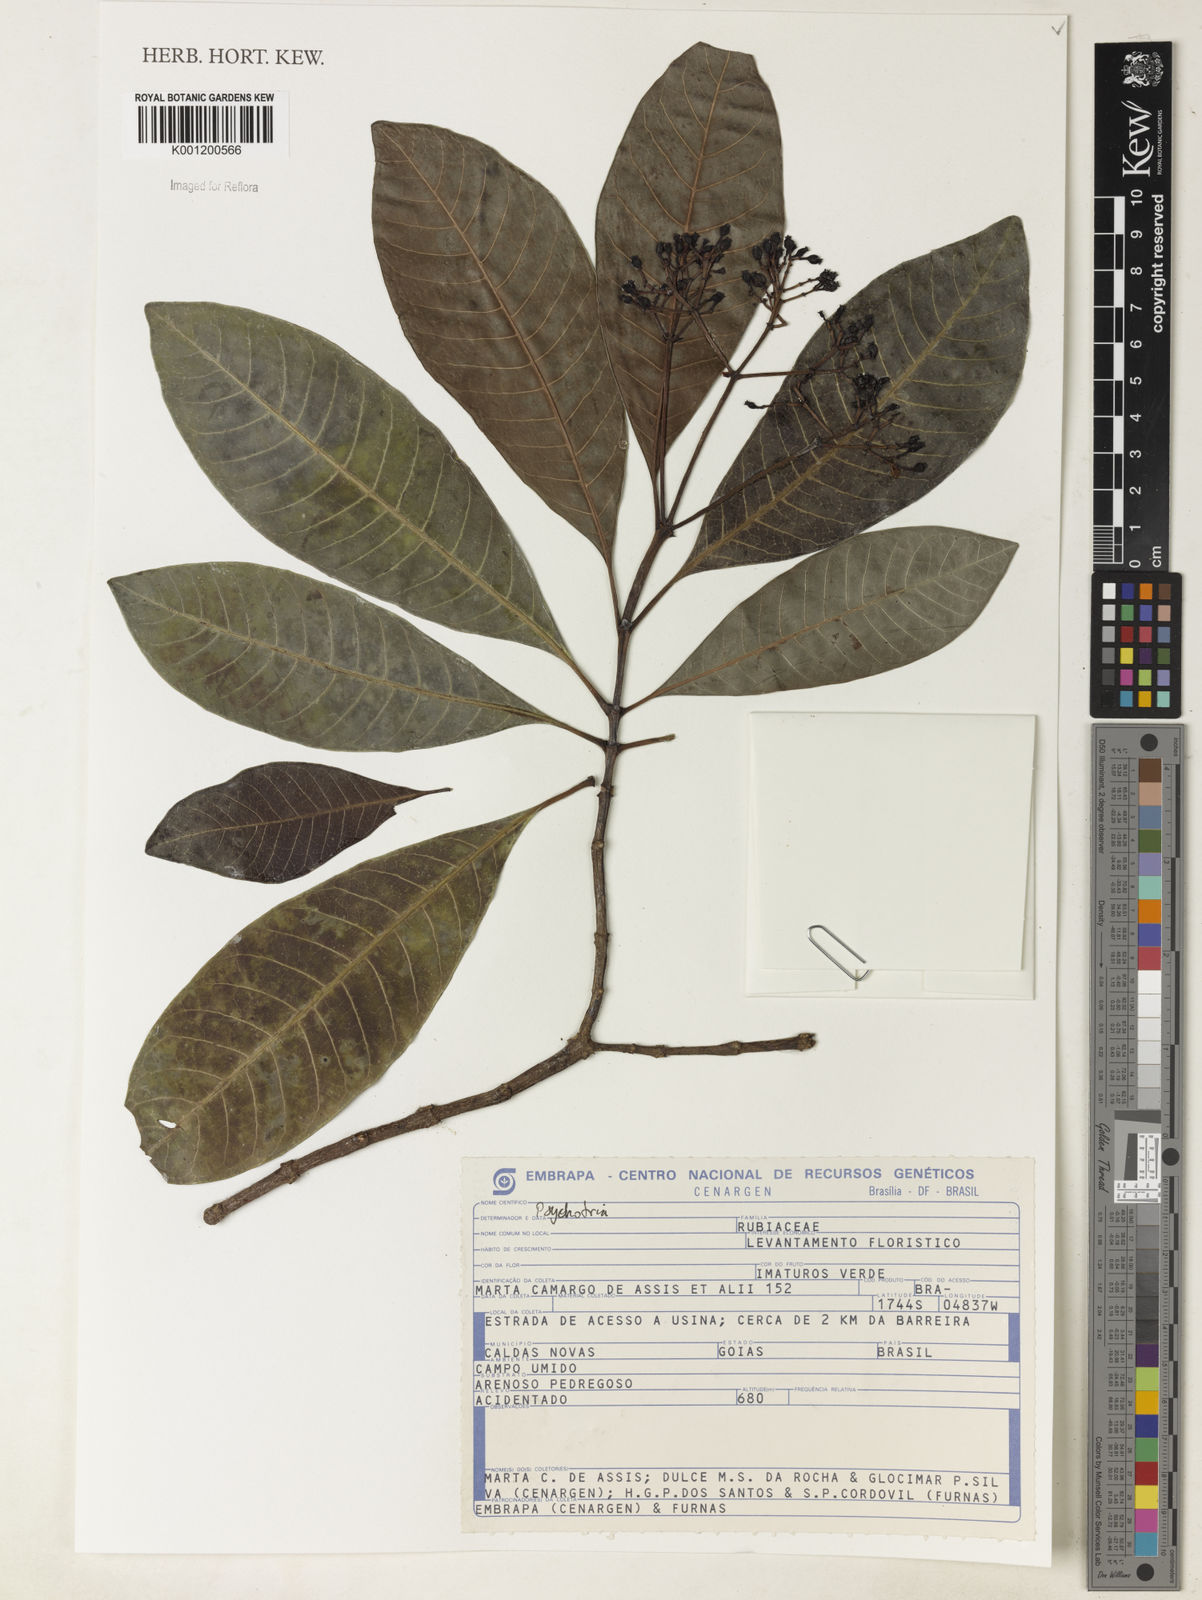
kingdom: Plantae
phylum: Tracheophyta
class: Magnoliopsida
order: Gentianales
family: Rubiaceae
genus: Psychotria
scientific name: Psychotria
